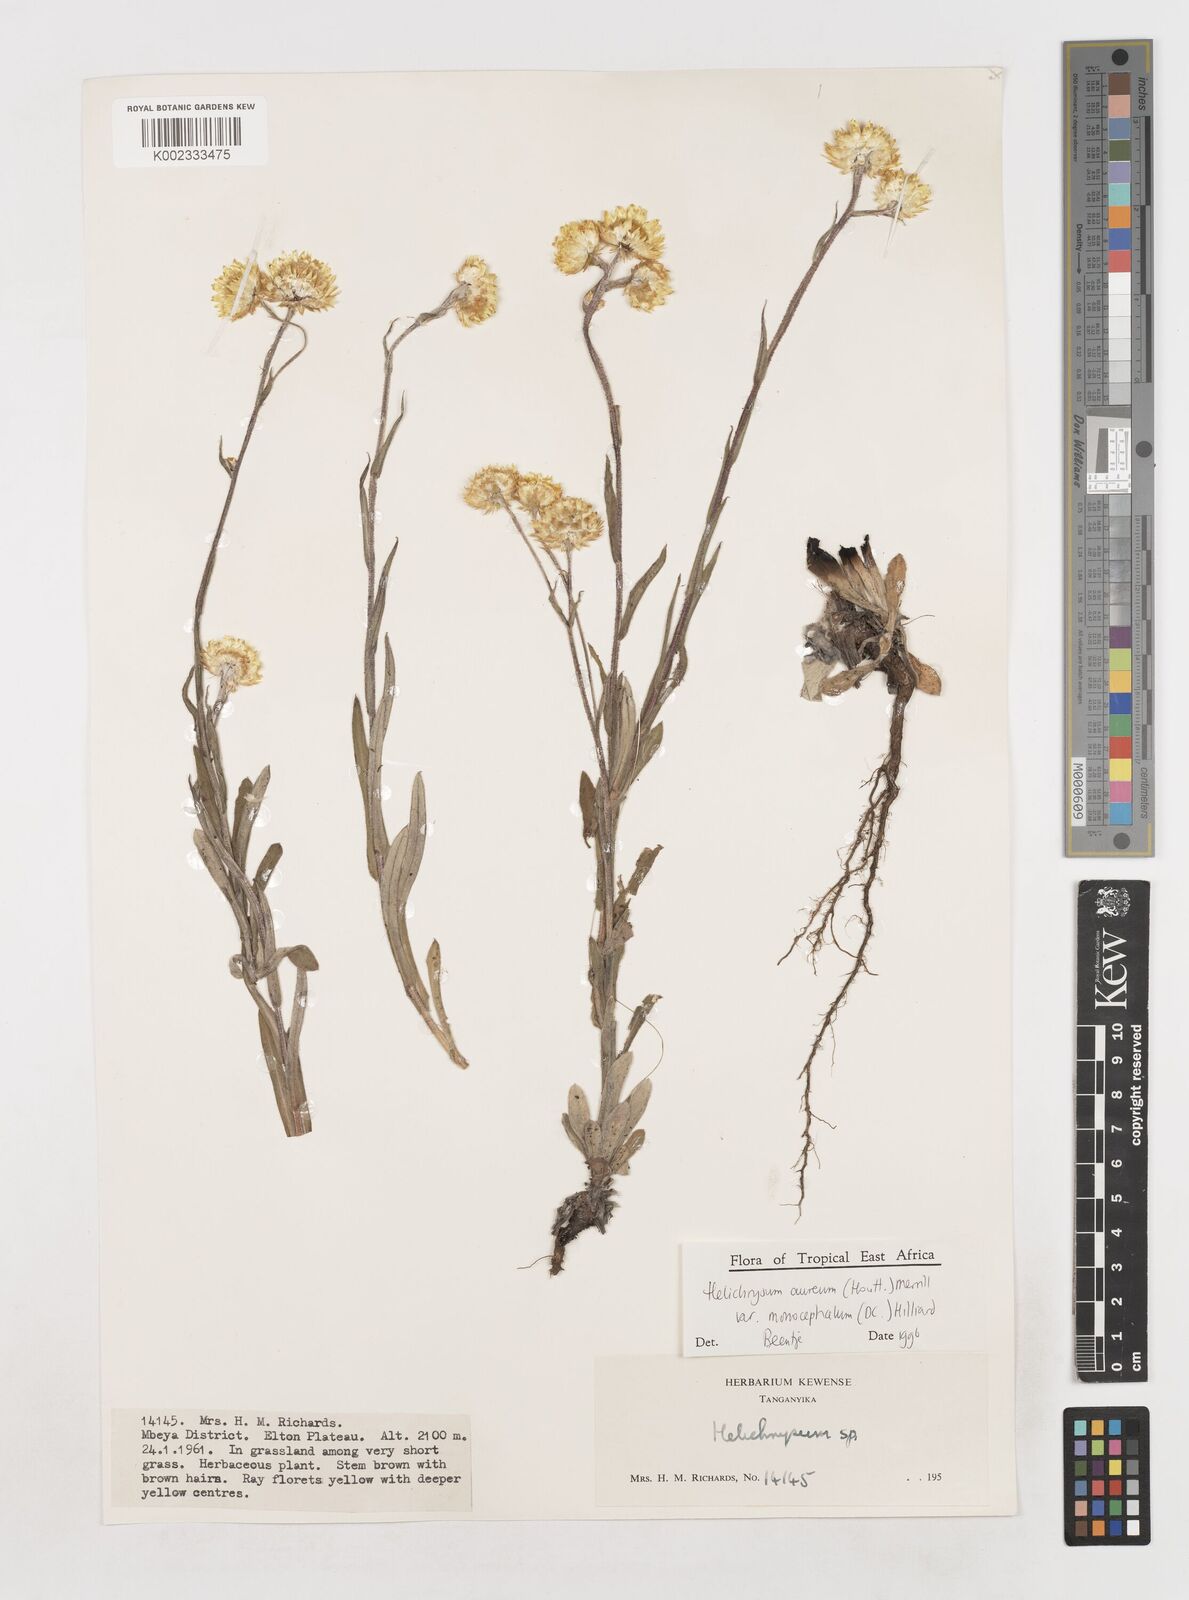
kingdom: Plantae
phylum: Tracheophyta
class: Magnoliopsida
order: Asterales
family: Asteraceae
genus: Helichrysum
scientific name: Helichrysum aureum
